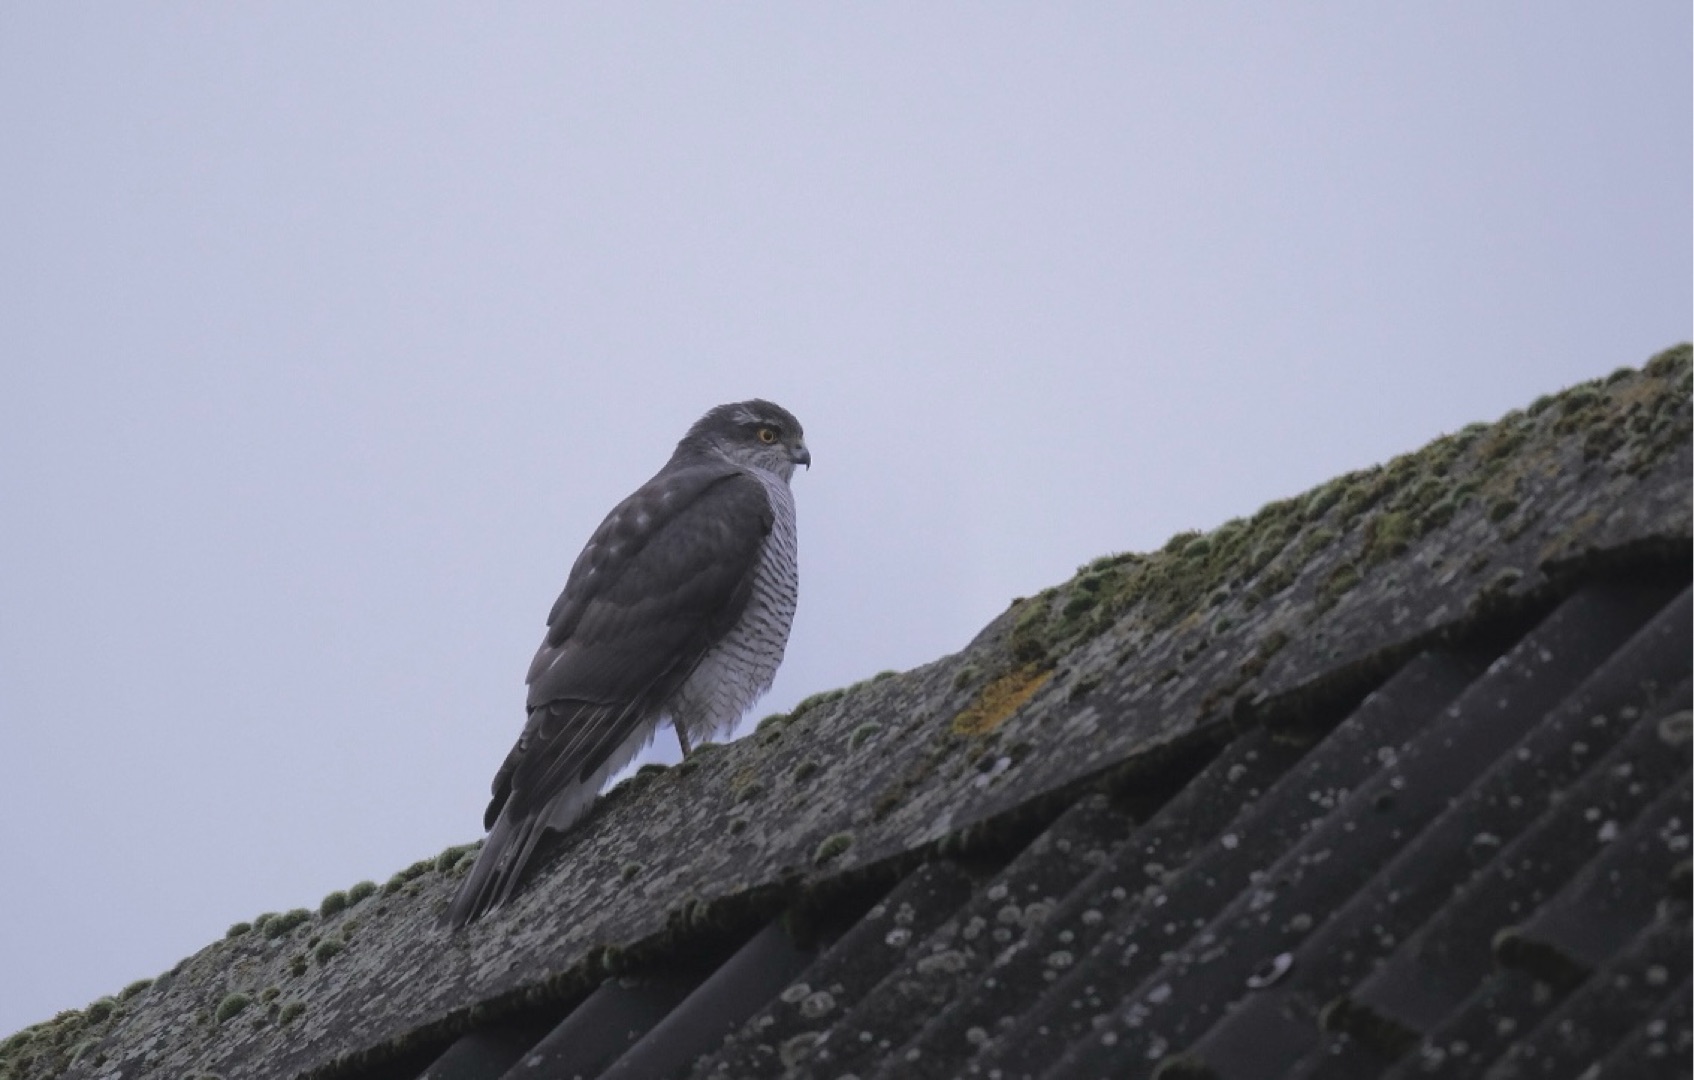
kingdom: Animalia
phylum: Chordata
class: Aves
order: Accipitriformes
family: Accipitridae
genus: Accipiter
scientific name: Accipiter nisus
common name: Spurvehøg
